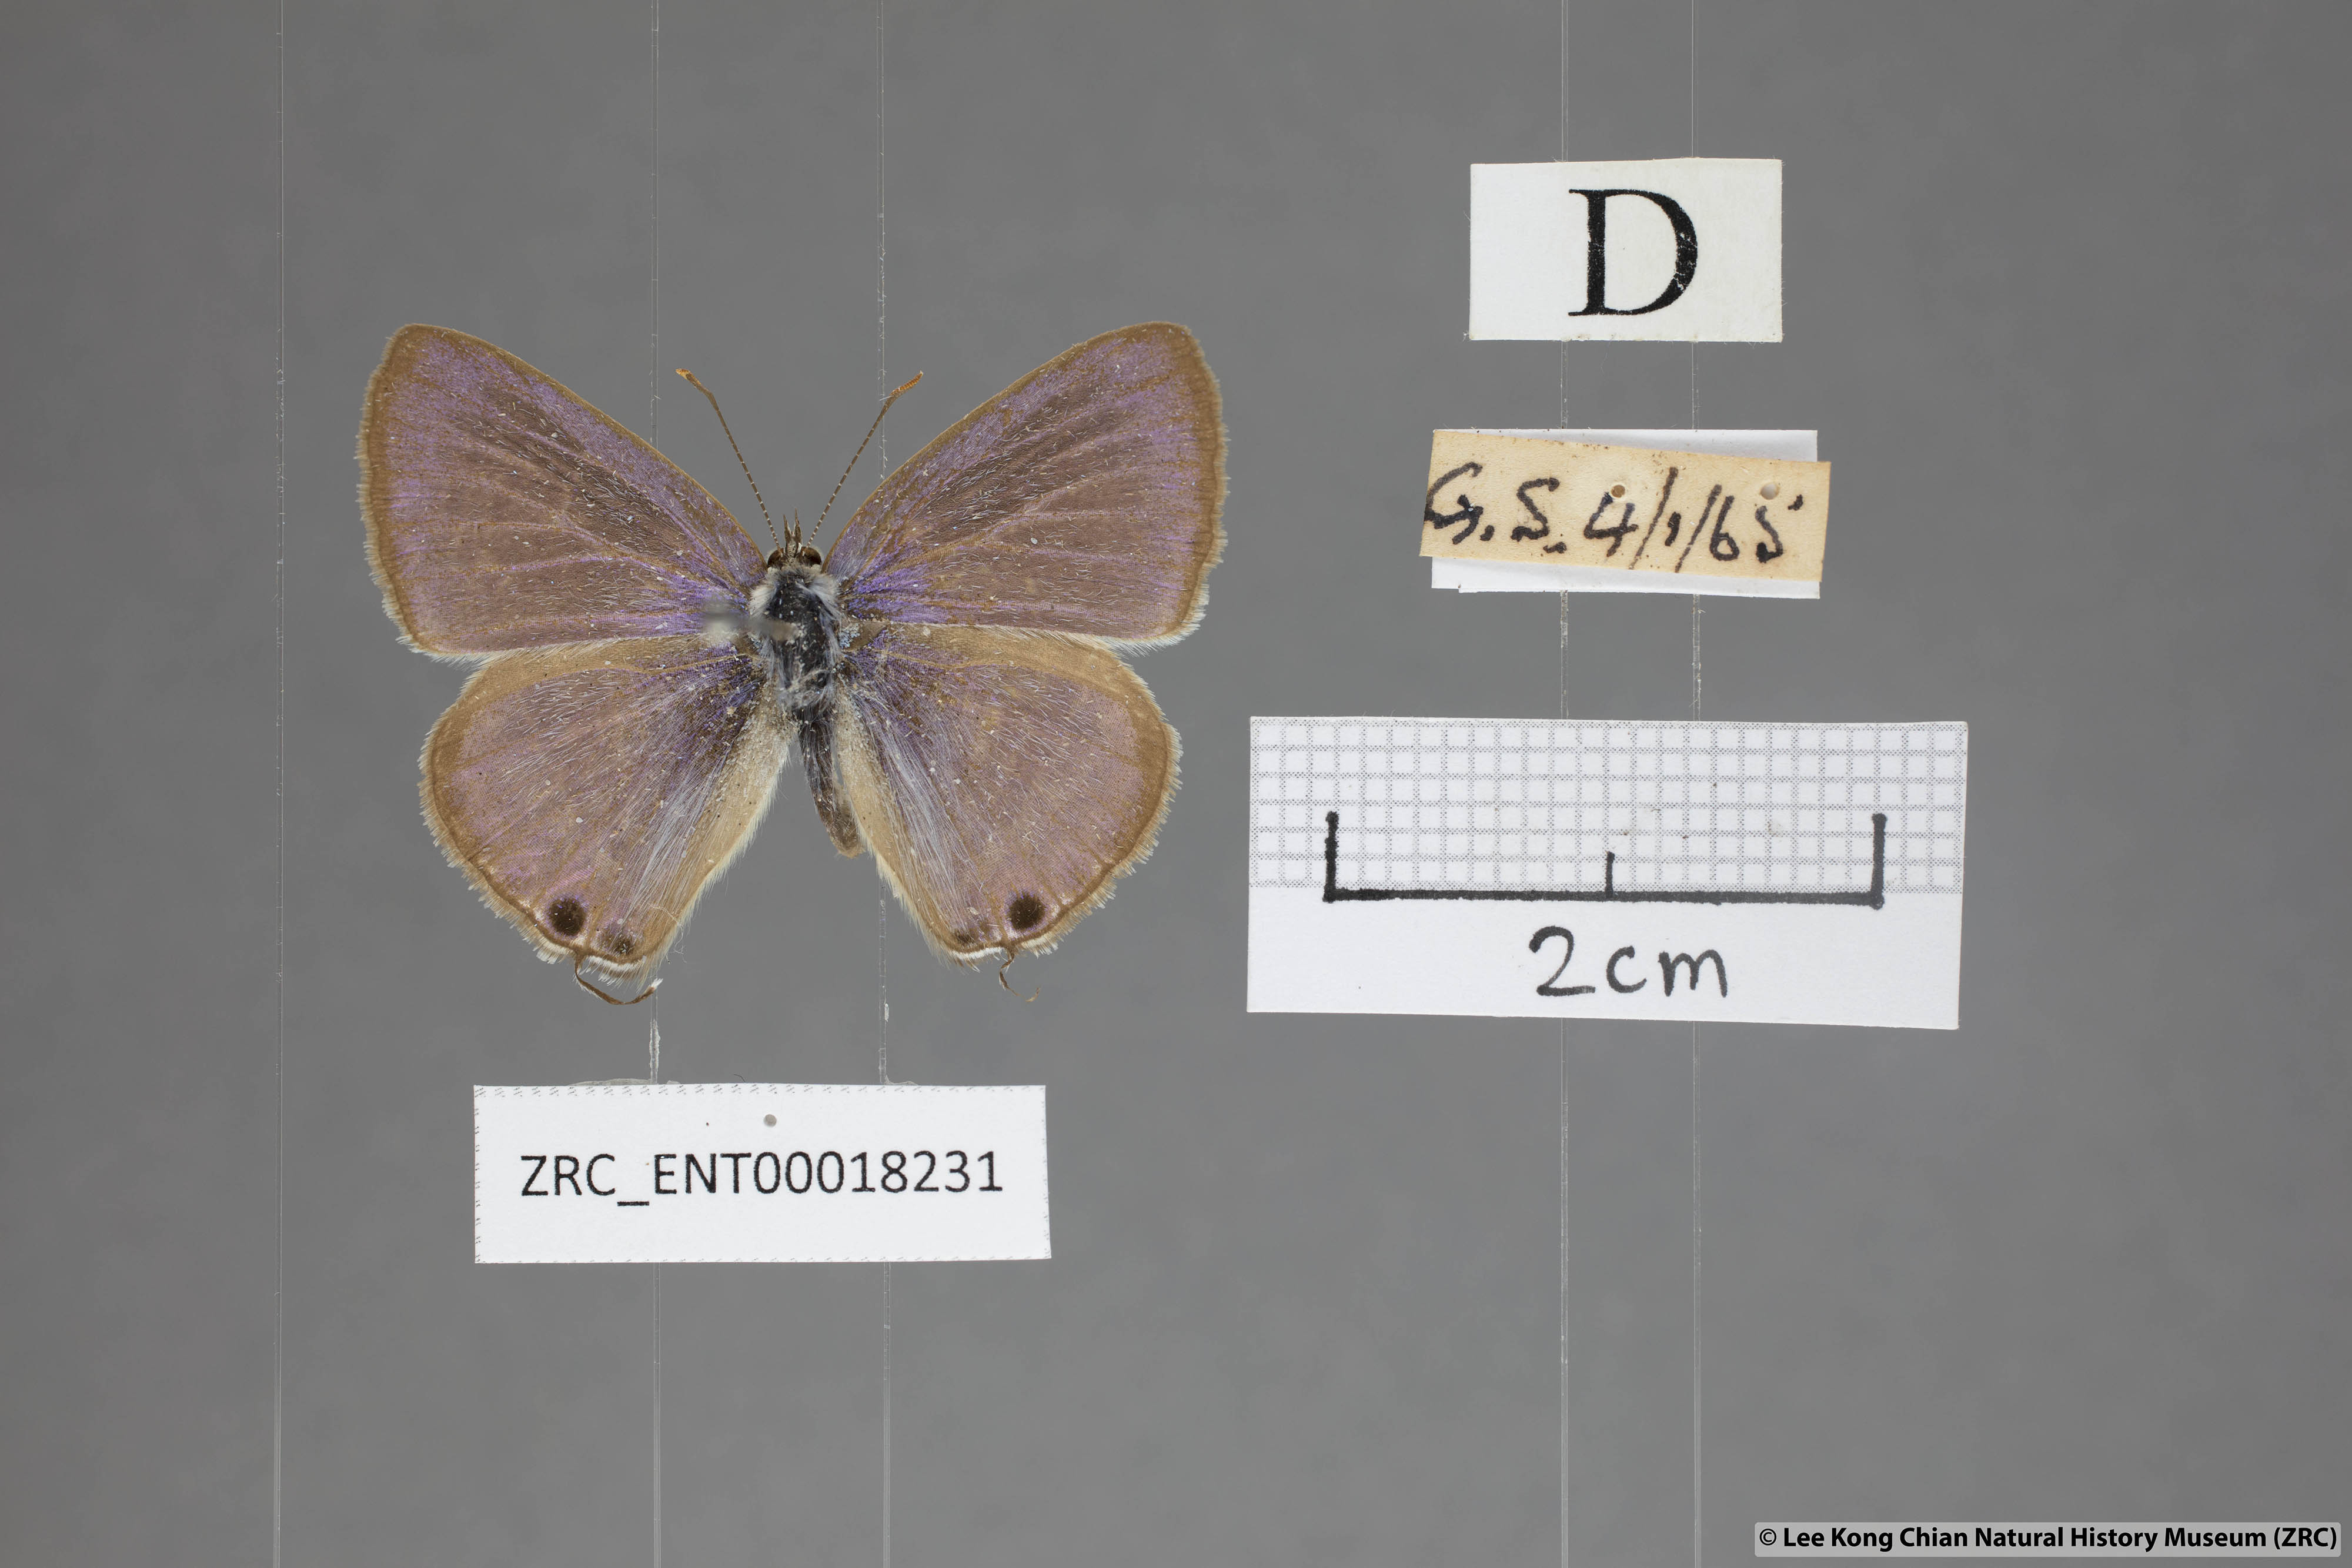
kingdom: Animalia
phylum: Arthropoda
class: Insecta
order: Lepidoptera
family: Lycaenidae
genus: Lampides
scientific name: Lampides boeticus
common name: Long-tailed blue
